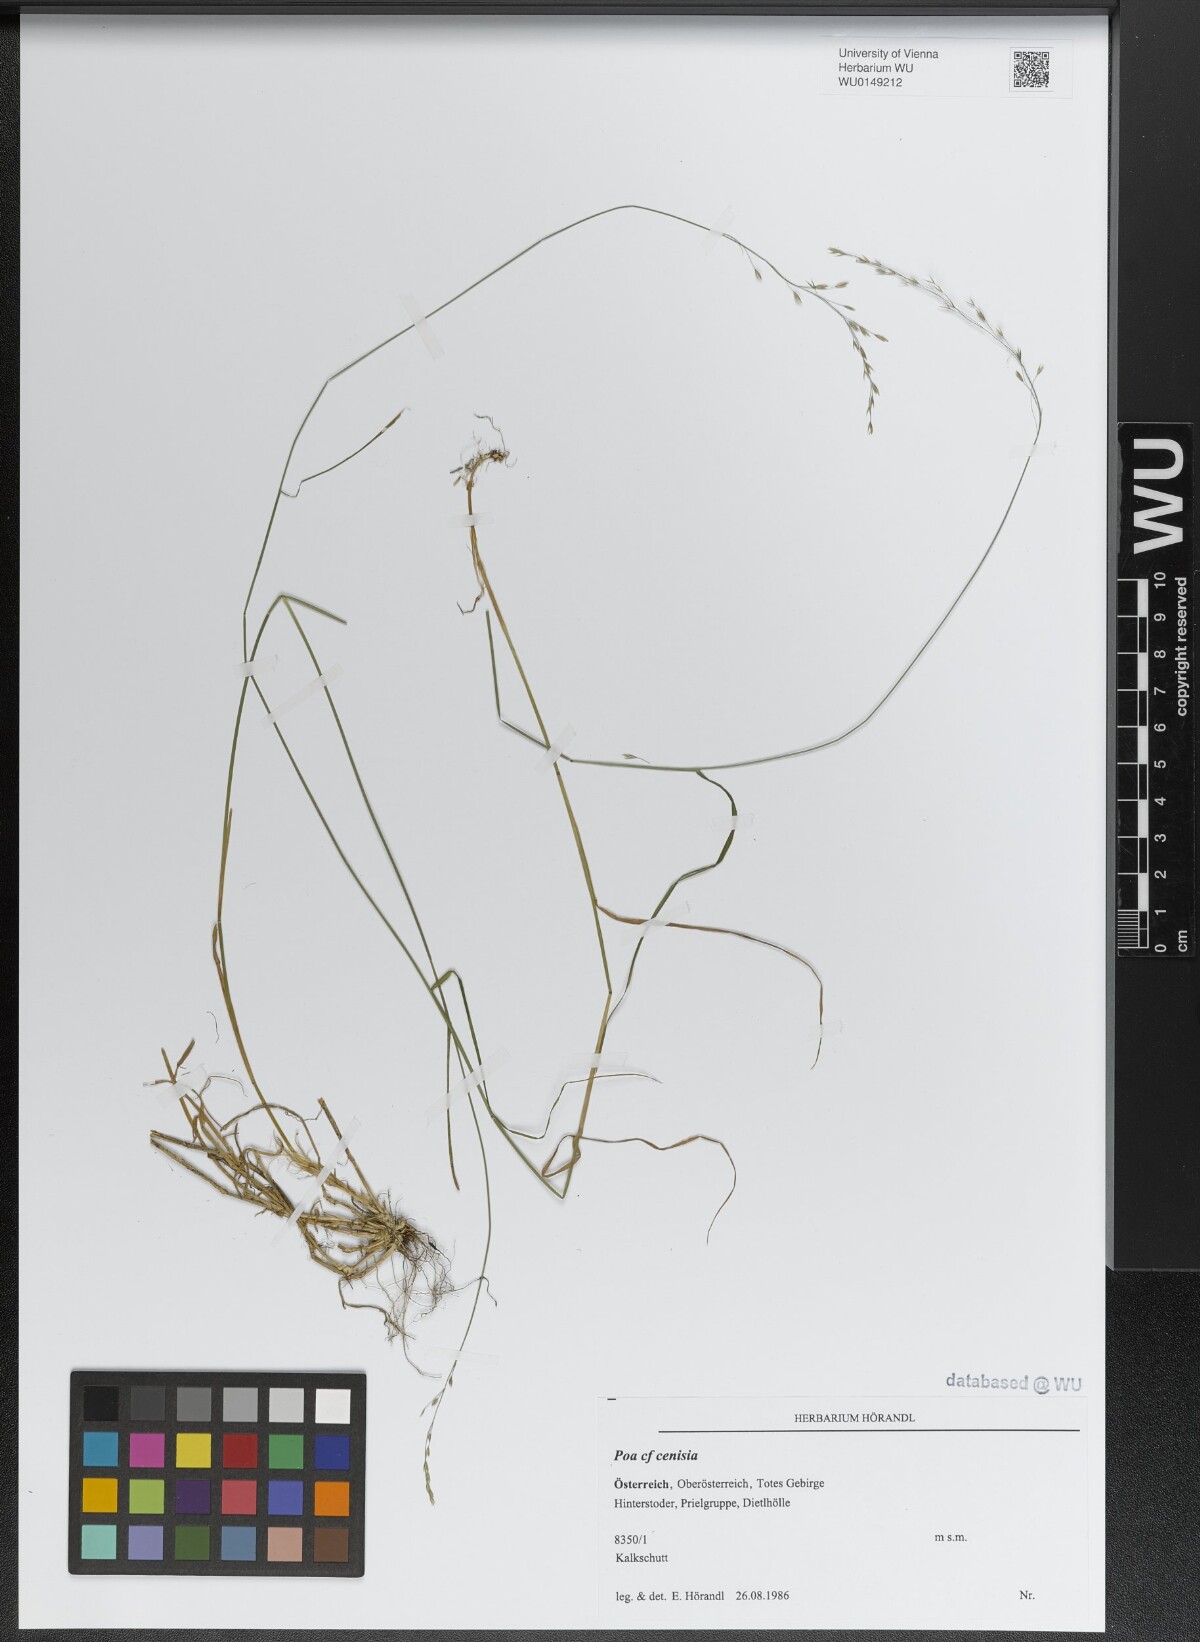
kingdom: Plantae
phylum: Tracheophyta
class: Liliopsida
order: Poales
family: Poaceae
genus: Poa
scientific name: Poa cenisia
